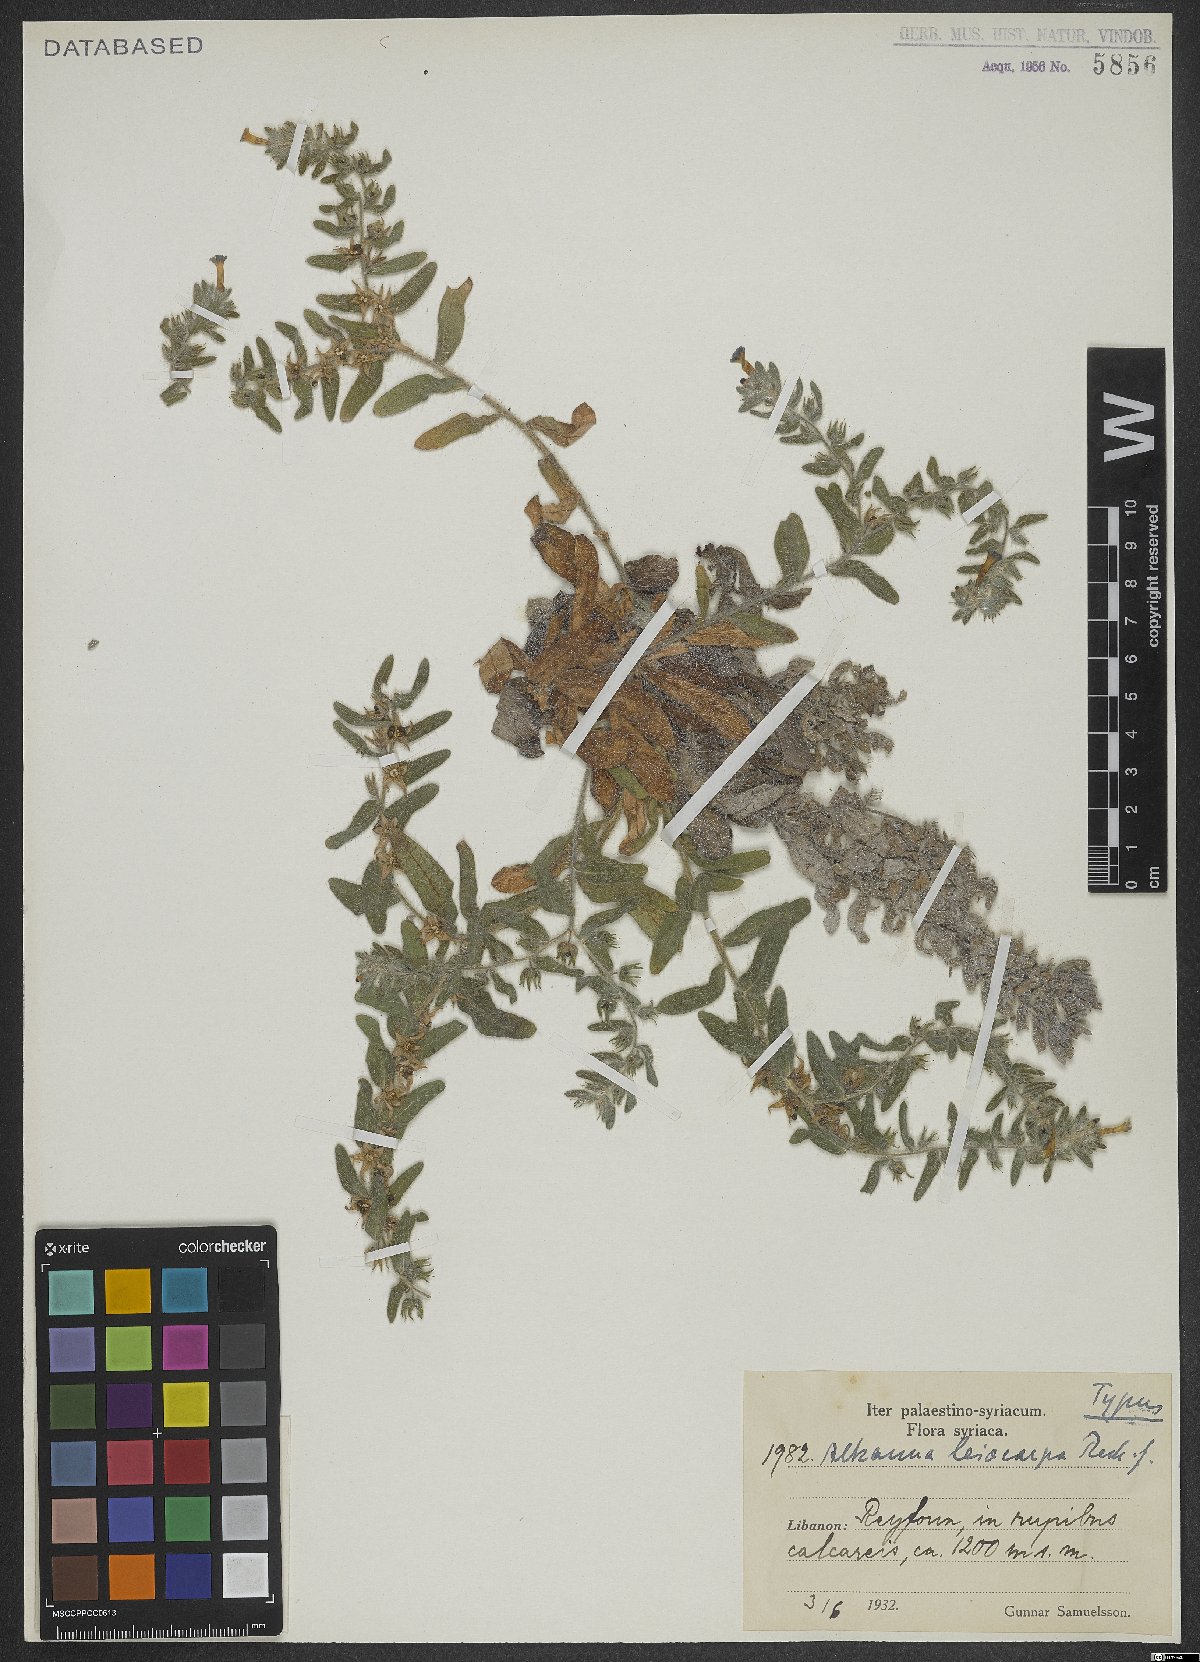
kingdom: Plantae
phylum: Tracheophyta
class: Magnoliopsida
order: Boraginales
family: Boraginaceae
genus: Alkanna
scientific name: Alkanna leiocarpa
